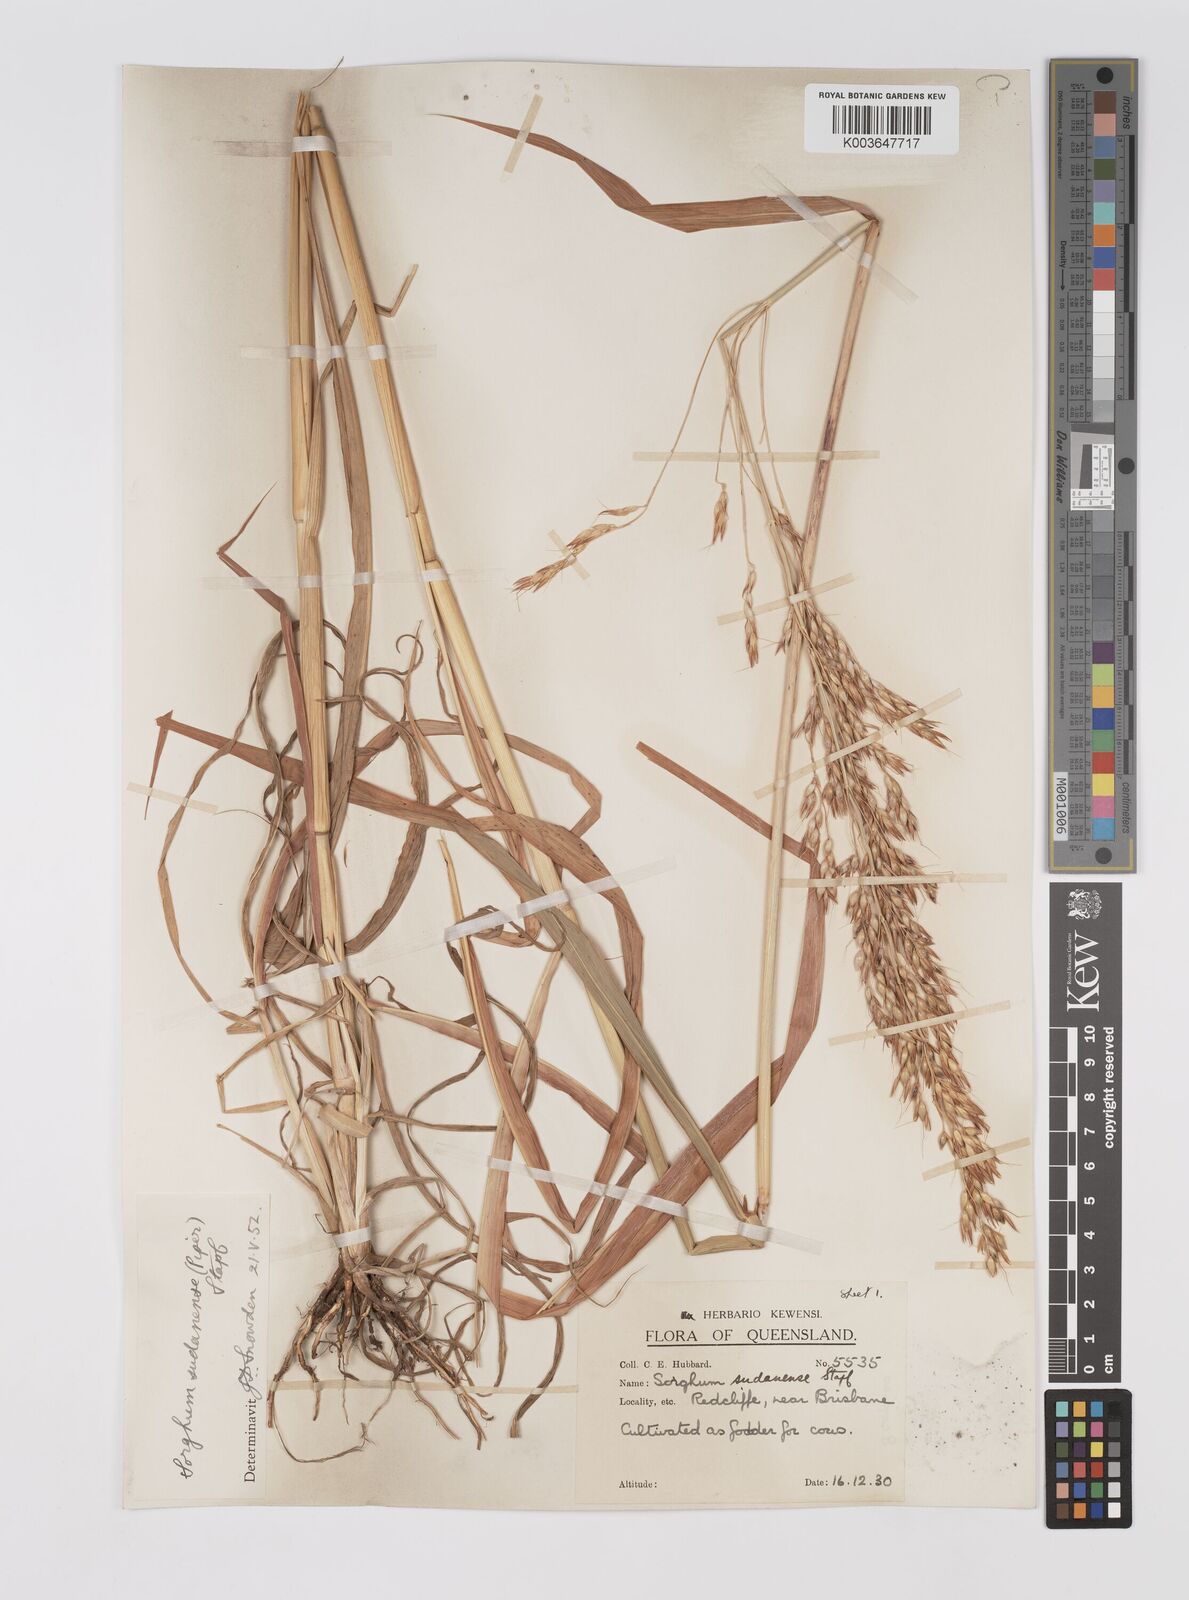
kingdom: Plantae
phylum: Tracheophyta
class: Liliopsida
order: Poales
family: Poaceae
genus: Sorghum
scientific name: Sorghum drummondii
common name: Sudangrass
